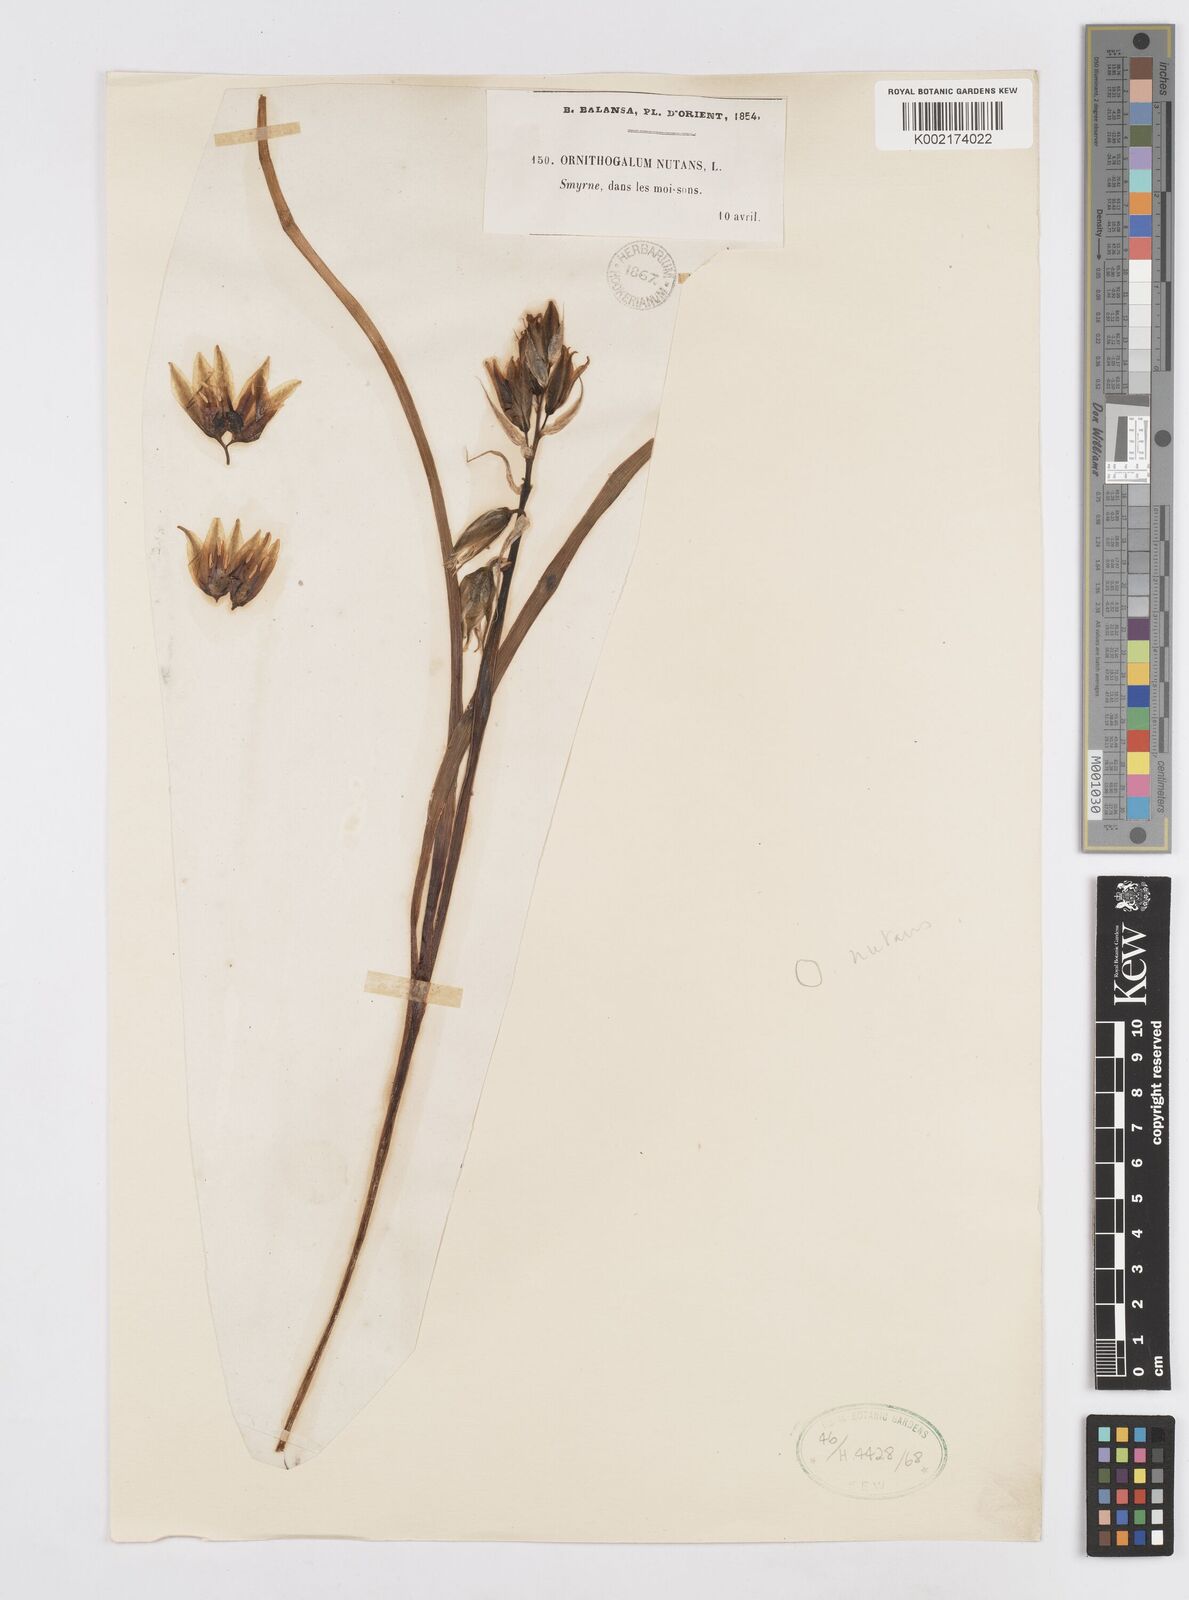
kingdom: Plantae
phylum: Tracheophyta
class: Liliopsida
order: Asparagales
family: Asparagaceae
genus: Ornithogalum
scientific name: Ornithogalum nutans
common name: Drooping star-of-bethlehem
